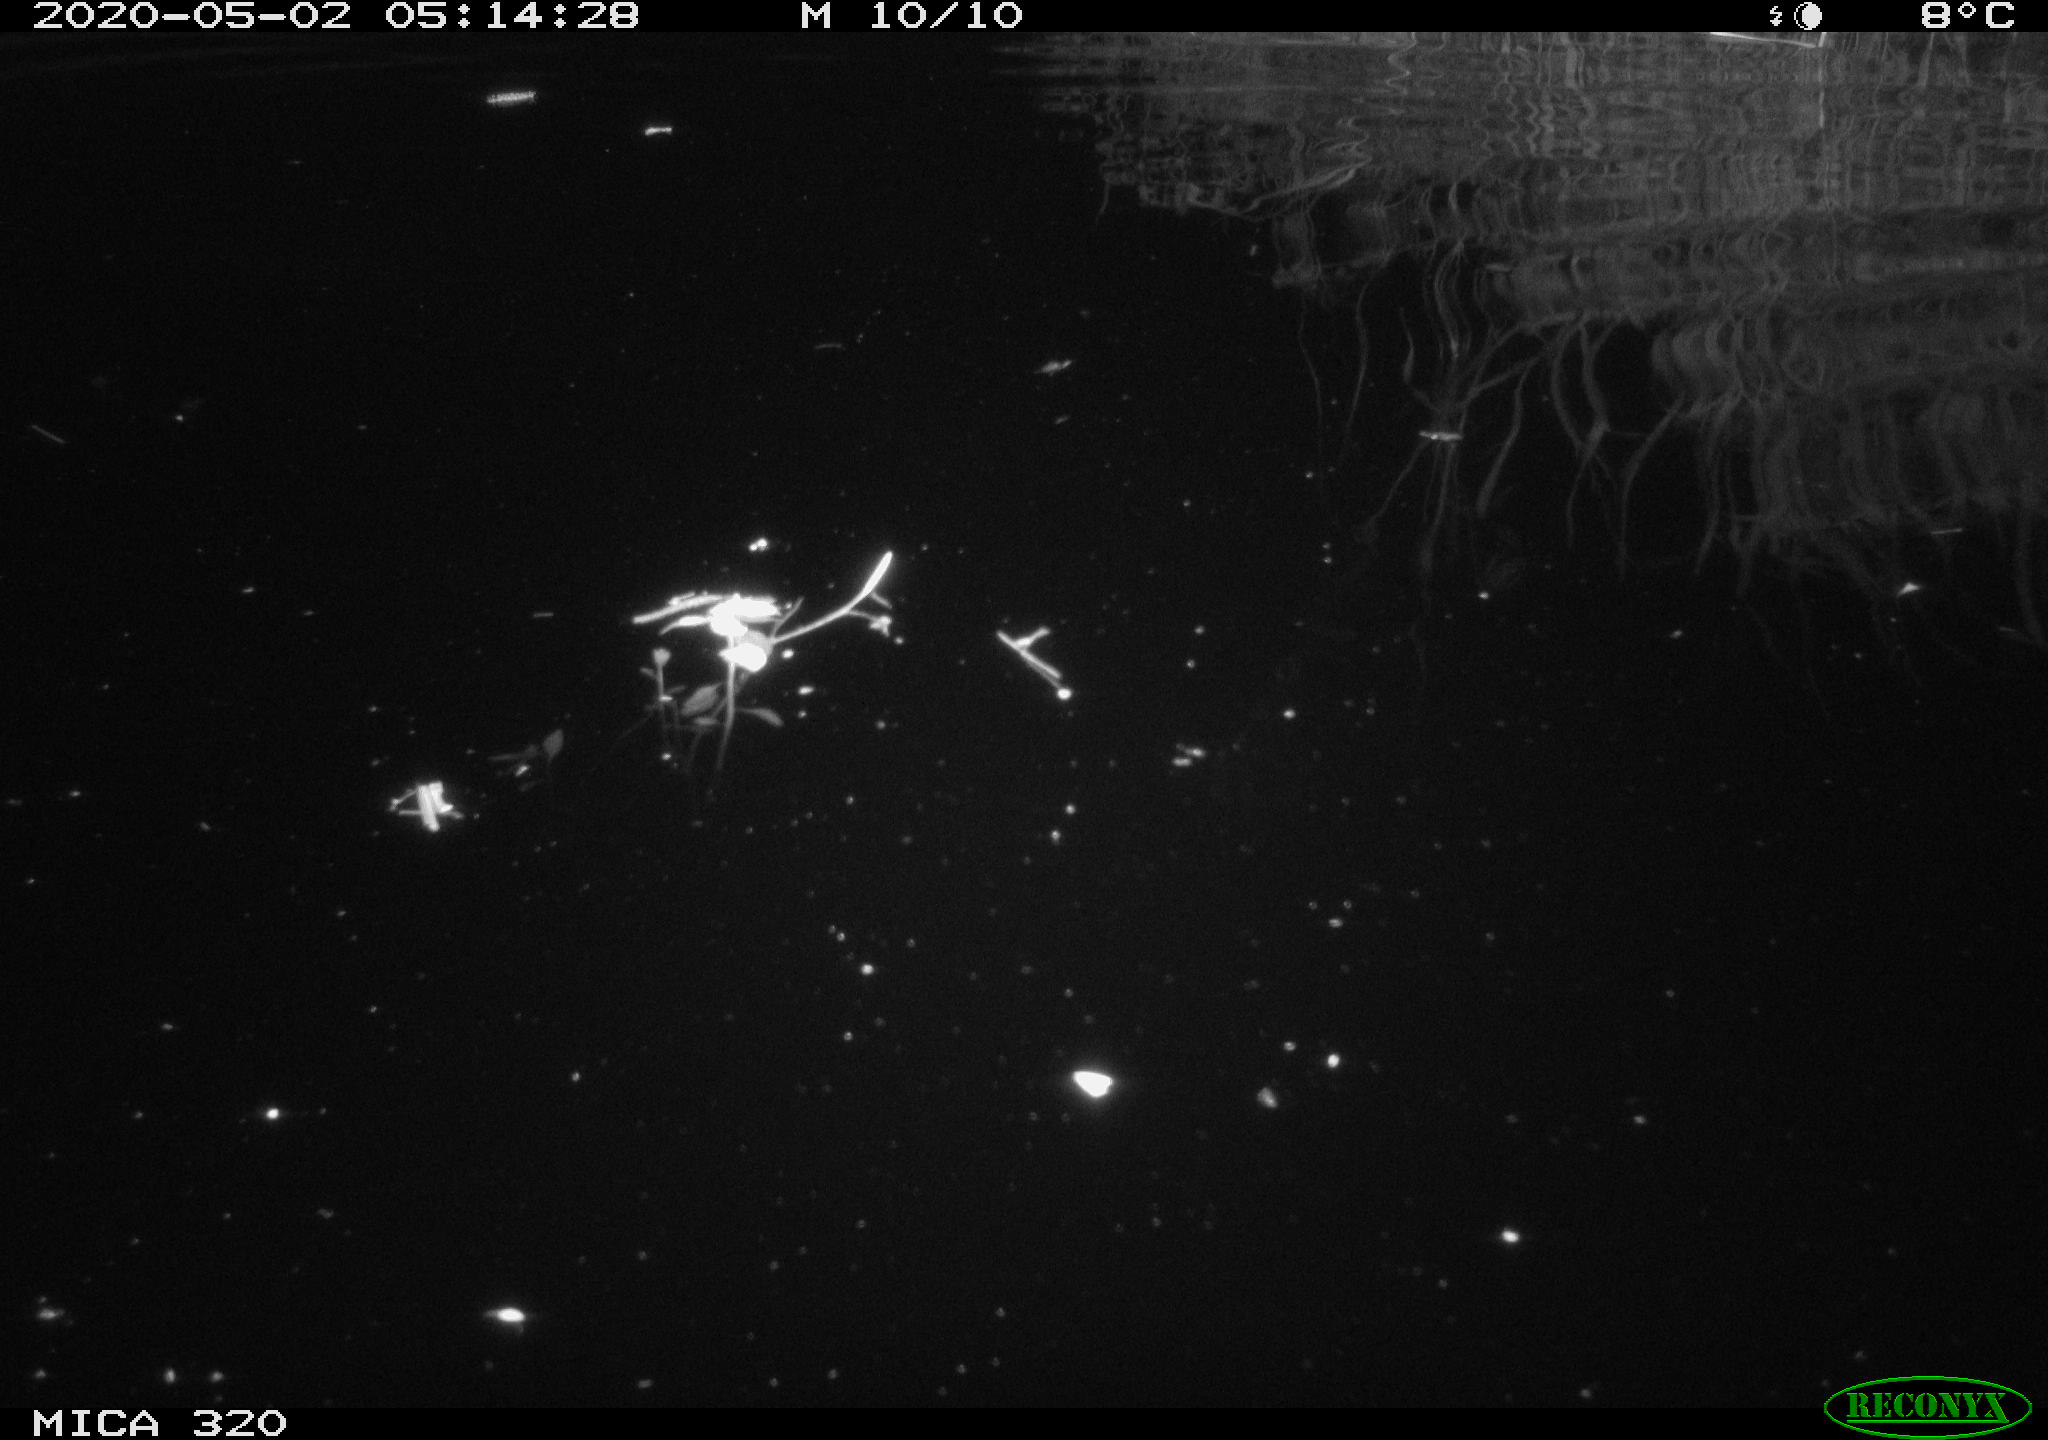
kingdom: Animalia
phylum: Chordata
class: Aves
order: Anseriformes
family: Anatidae
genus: Anas
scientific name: Anas platyrhynchos
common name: Mallard
